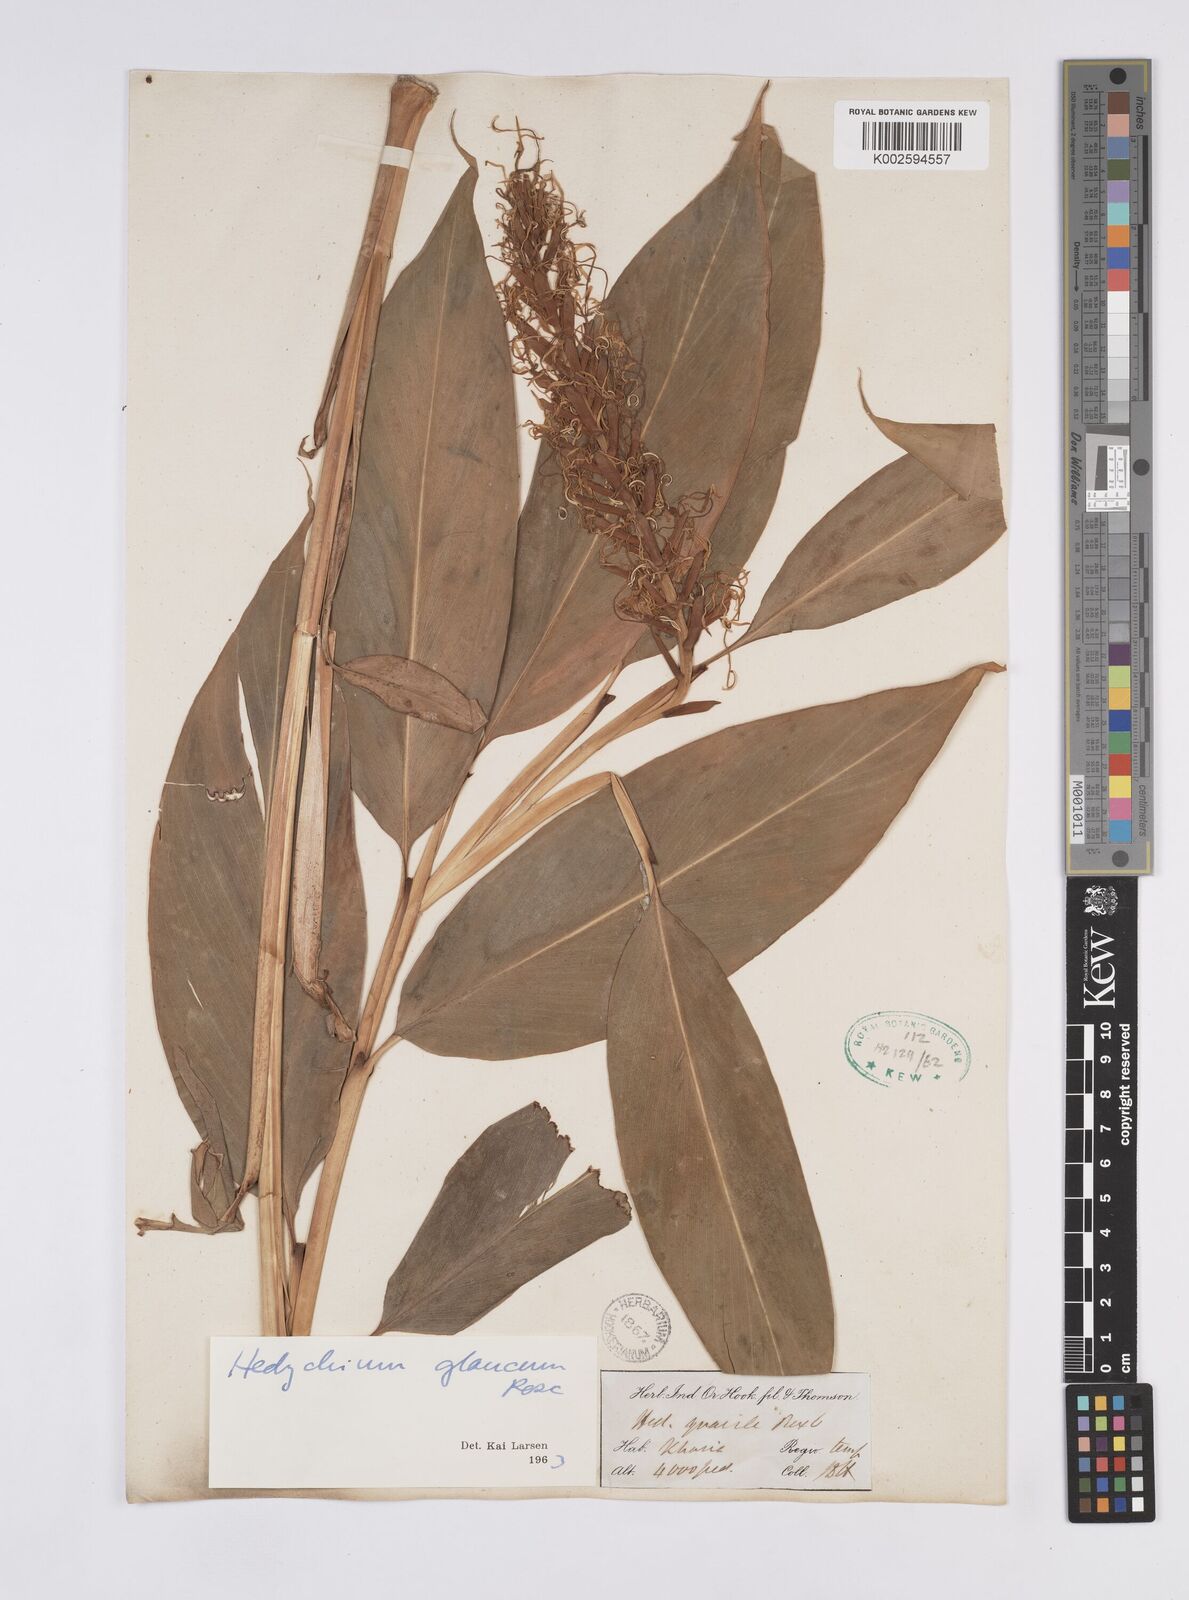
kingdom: Plantae
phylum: Tracheophyta
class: Liliopsida
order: Zingiberales
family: Zingiberaceae
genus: Hedychium
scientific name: Hedychium glaucum
